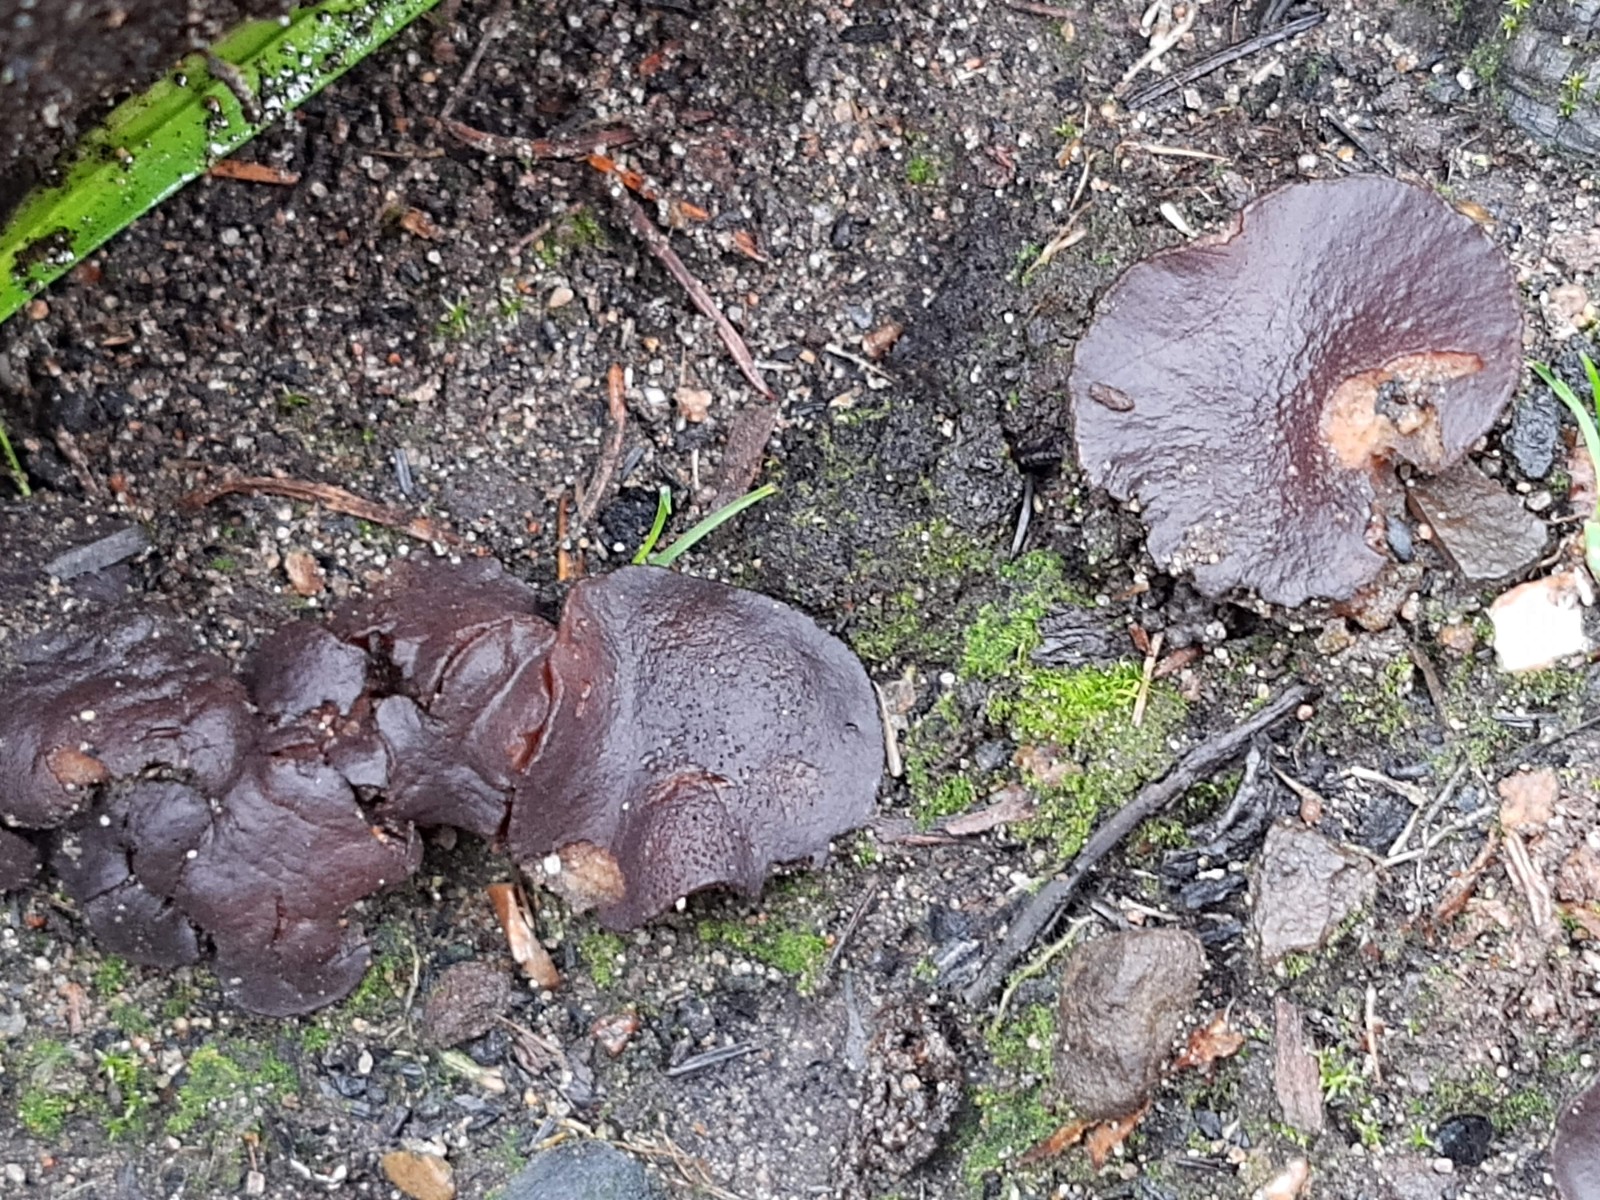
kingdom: Fungi
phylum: Ascomycota
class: Pezizomycetes
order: Pezizales
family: Pyronemataceae
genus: Plicaria
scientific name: Plicaria carbonaria
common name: pigsporet bålbæger
